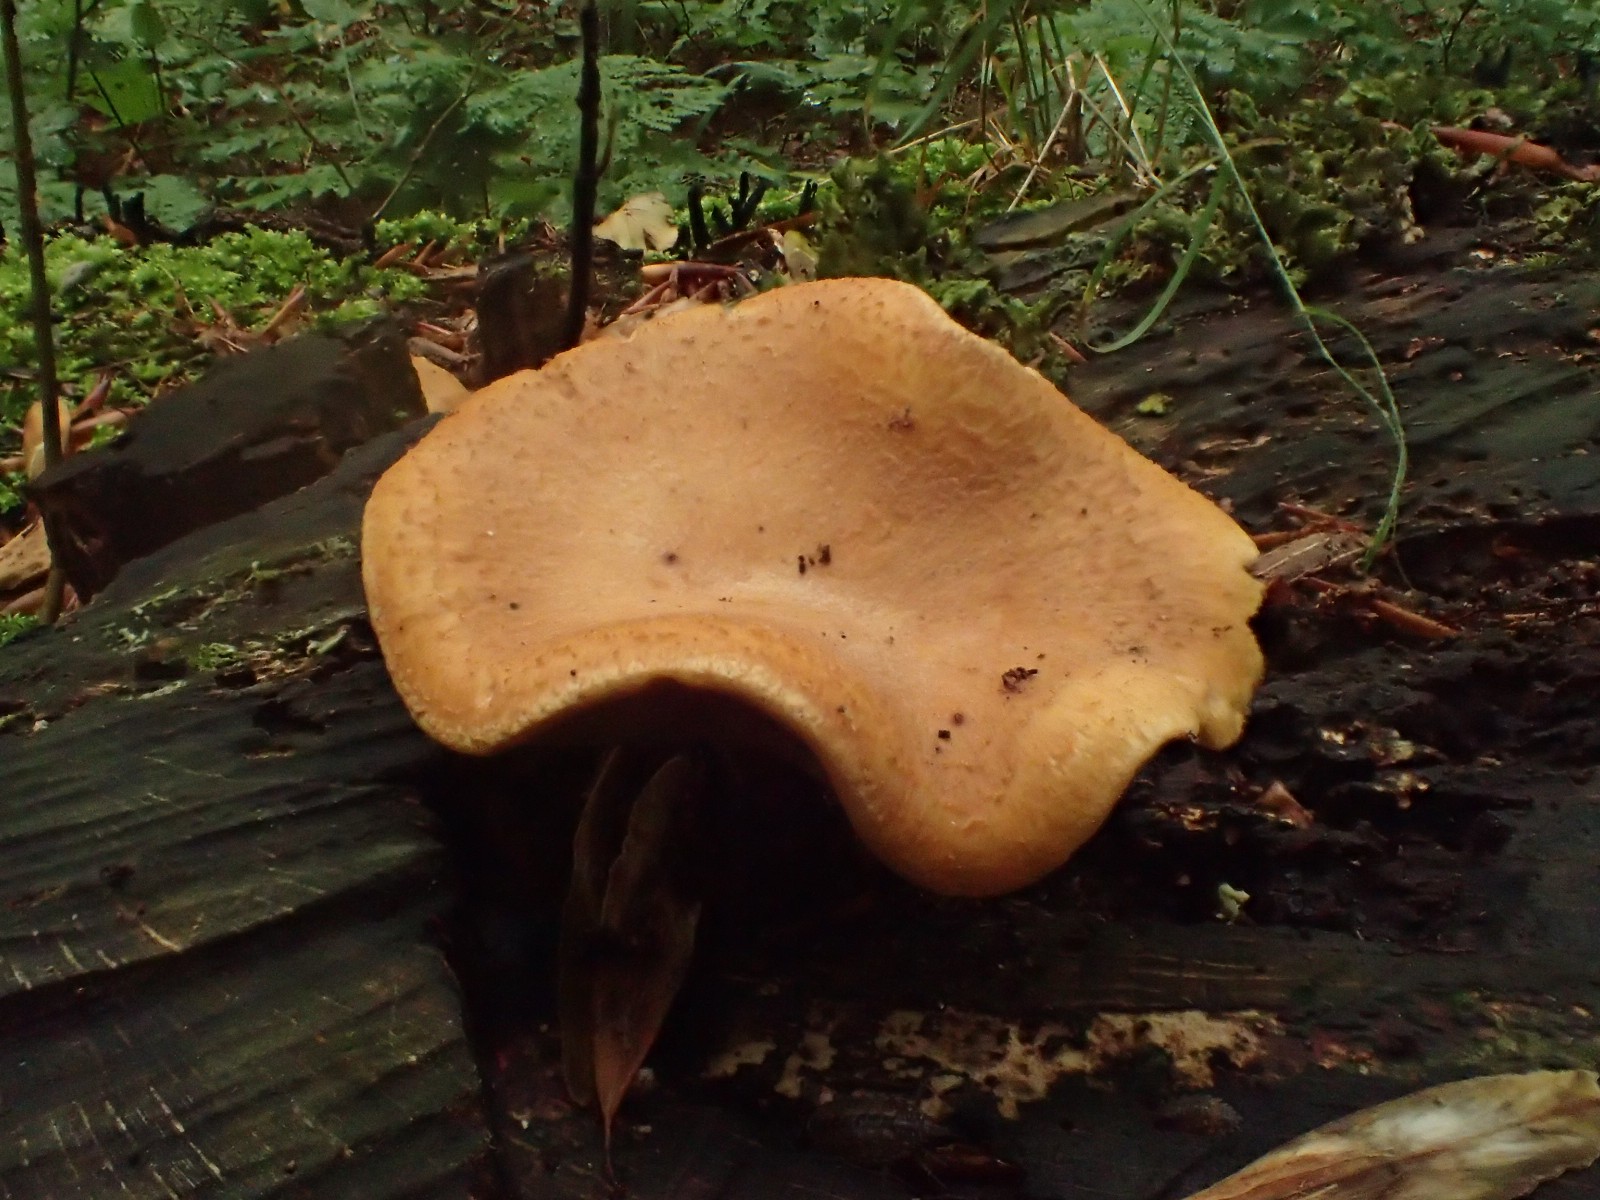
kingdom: Fungi
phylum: Basidiomycota
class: Agaricomycetes
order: Polyporales
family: Polyporaceae
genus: Cerioporus
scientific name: Cerioporus varius
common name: foranderlig stilkporesvamp
